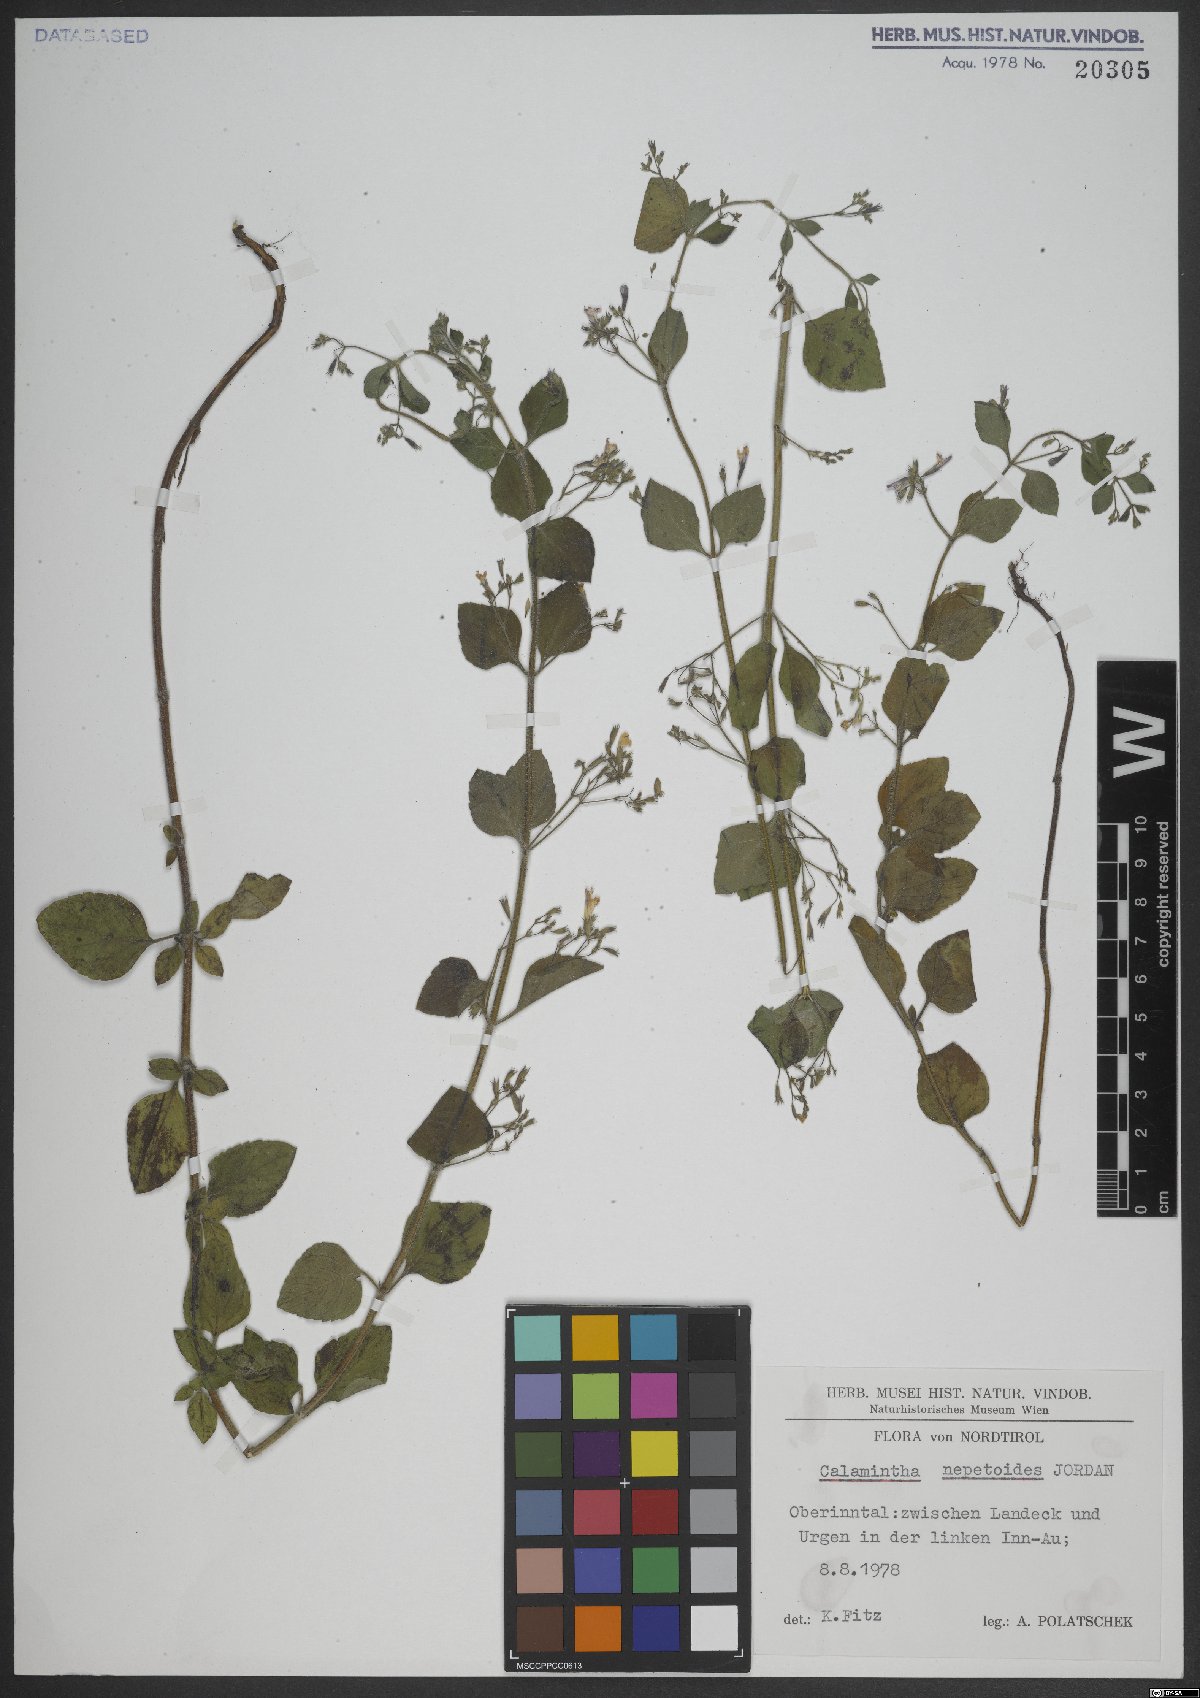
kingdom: Plantae
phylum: Tracheophyta
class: Magnoliopsida
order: Lamiales
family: Lamiaceae
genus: Clinopodium
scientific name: Clinopodium nepeta
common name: Lesser calamint
